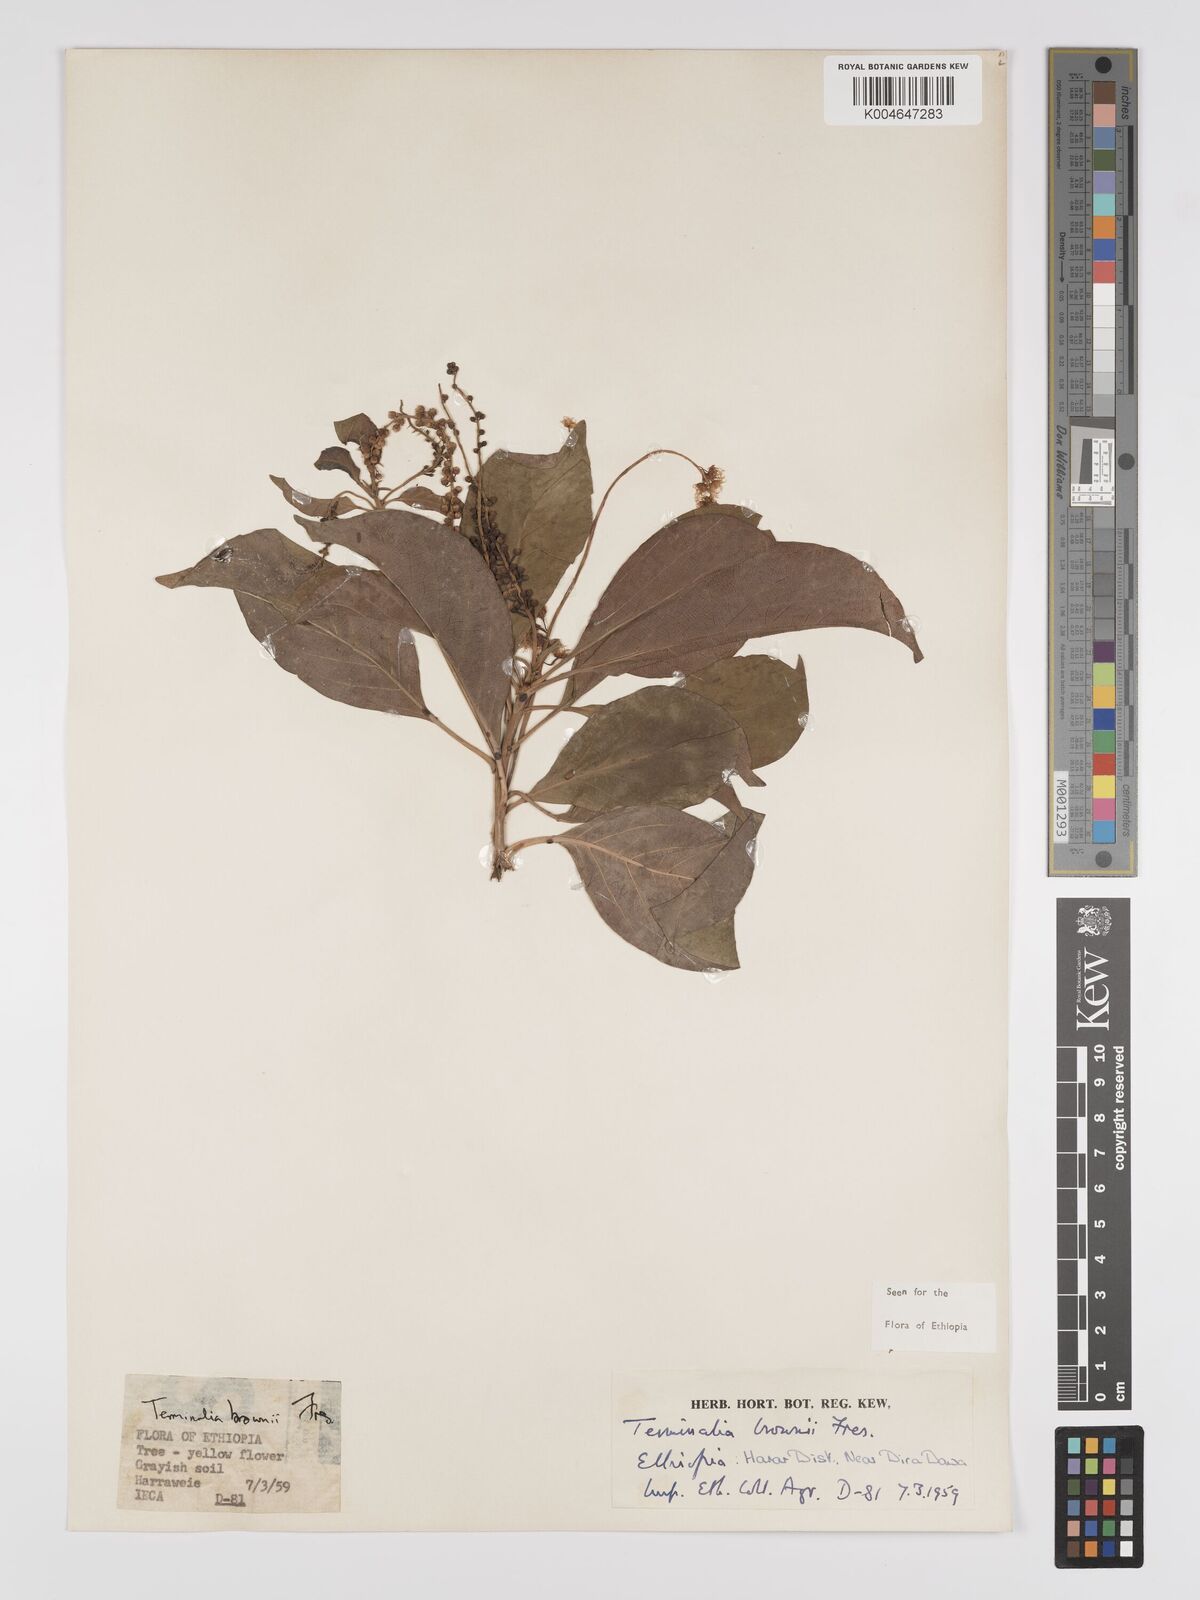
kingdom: Plantae
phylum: Tracheophyta
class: Magnoliopsida
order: Myrtales
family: Combretaceae
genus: Terminalia
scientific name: Terminalia brownii
